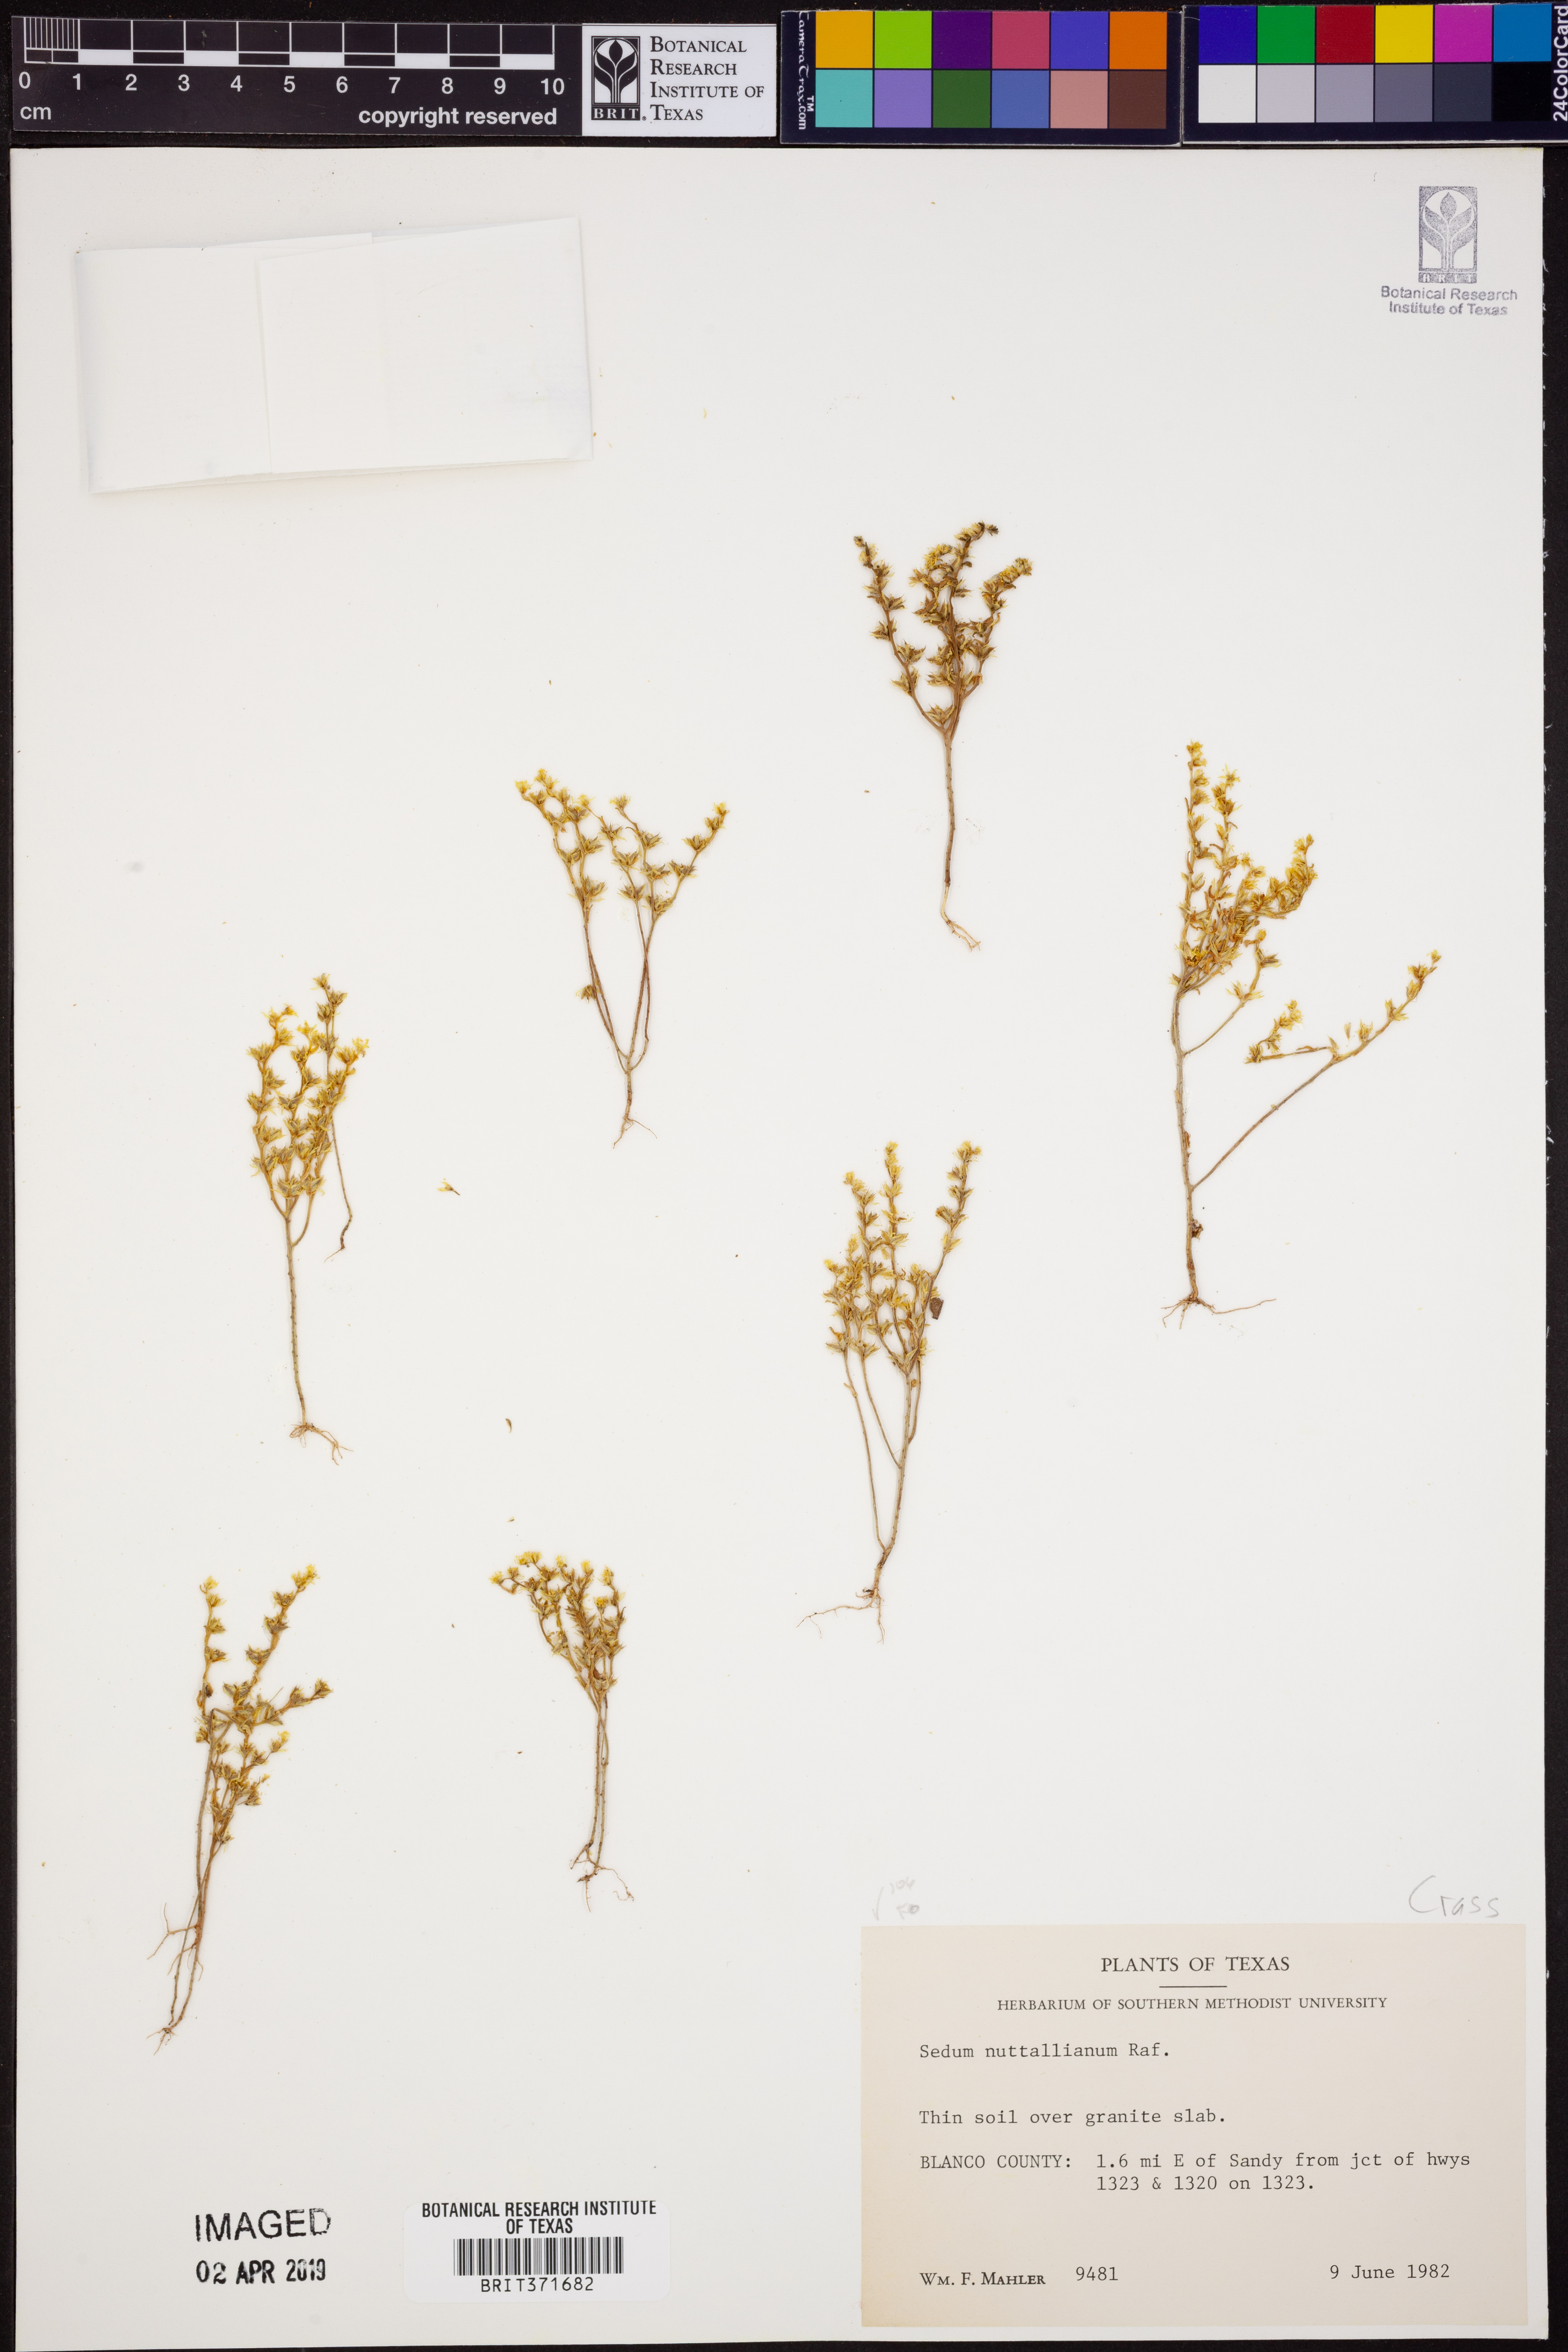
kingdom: Plantae
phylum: Tracheophyta
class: Magnoliopsida
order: Saxifragales
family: Crassulaceae
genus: Sedum
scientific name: Sedum nuttallii
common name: Yellow stonecrop
